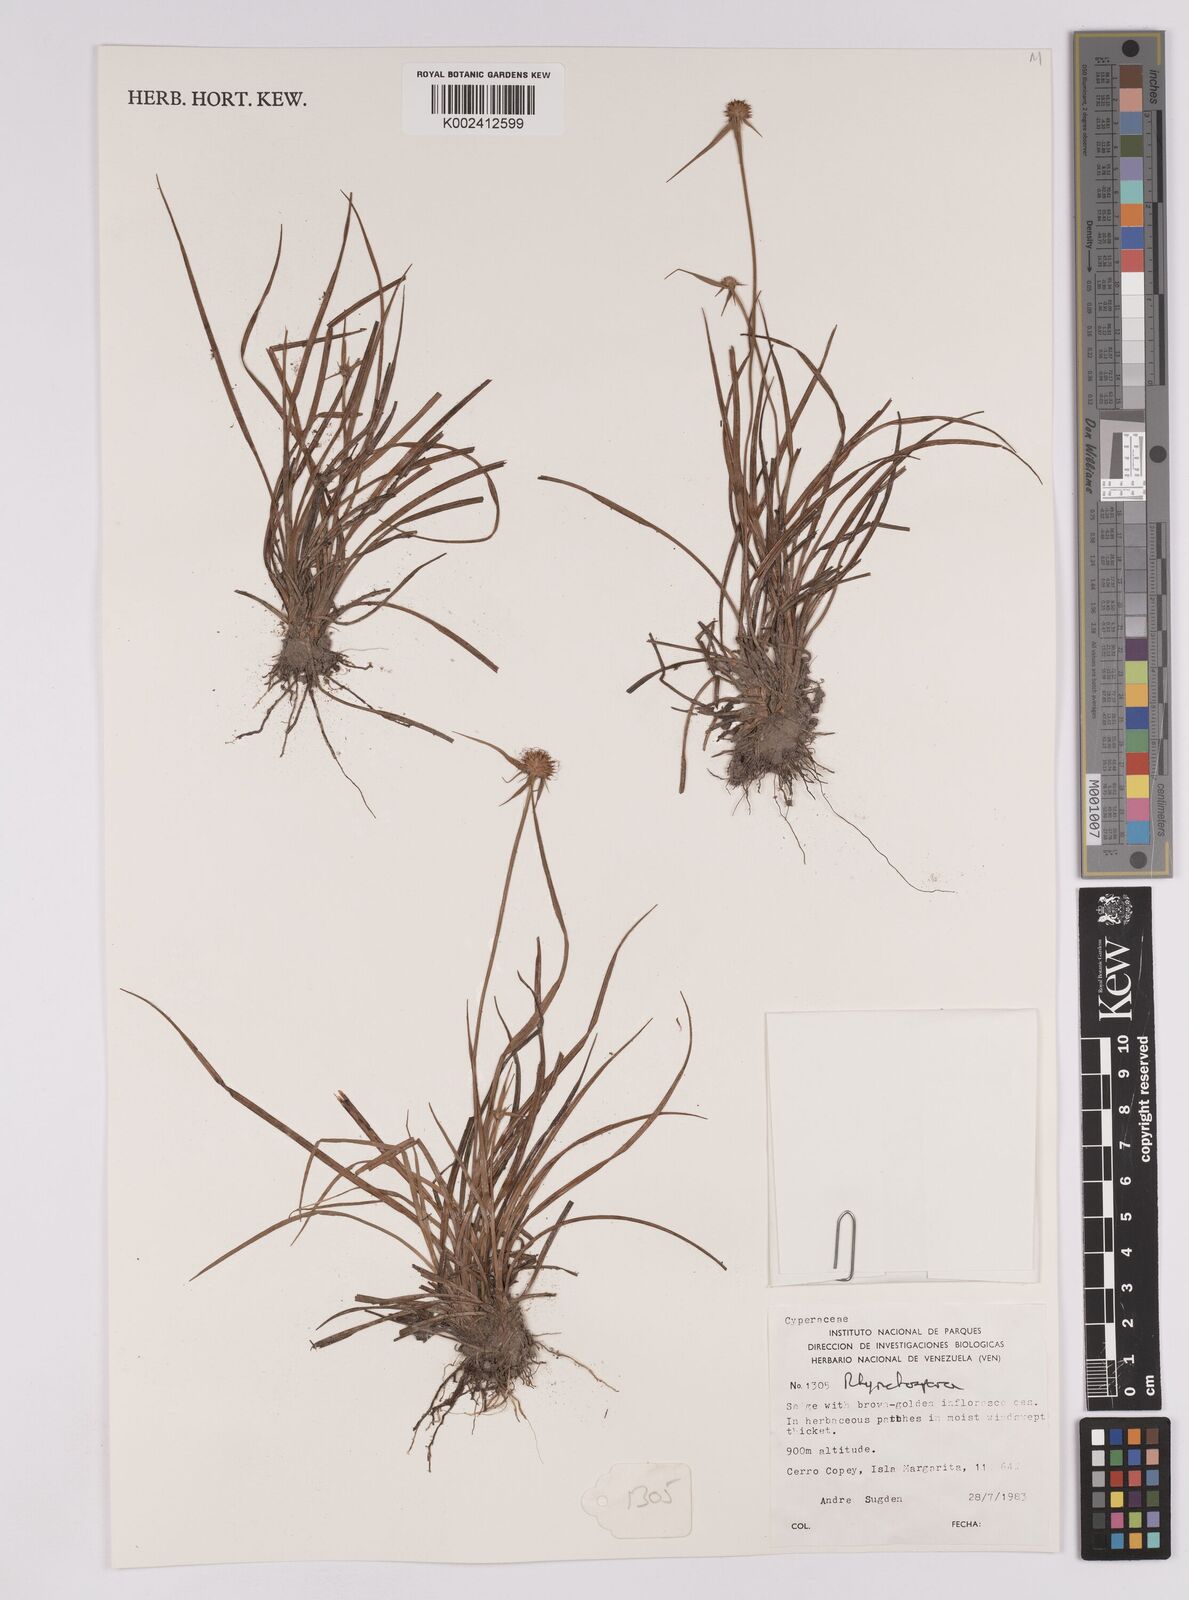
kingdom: Plantae
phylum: Tracheophyta
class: Liliopsida
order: Poales
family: Cyperaceae
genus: Rhynchospora
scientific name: Rhynchospora
